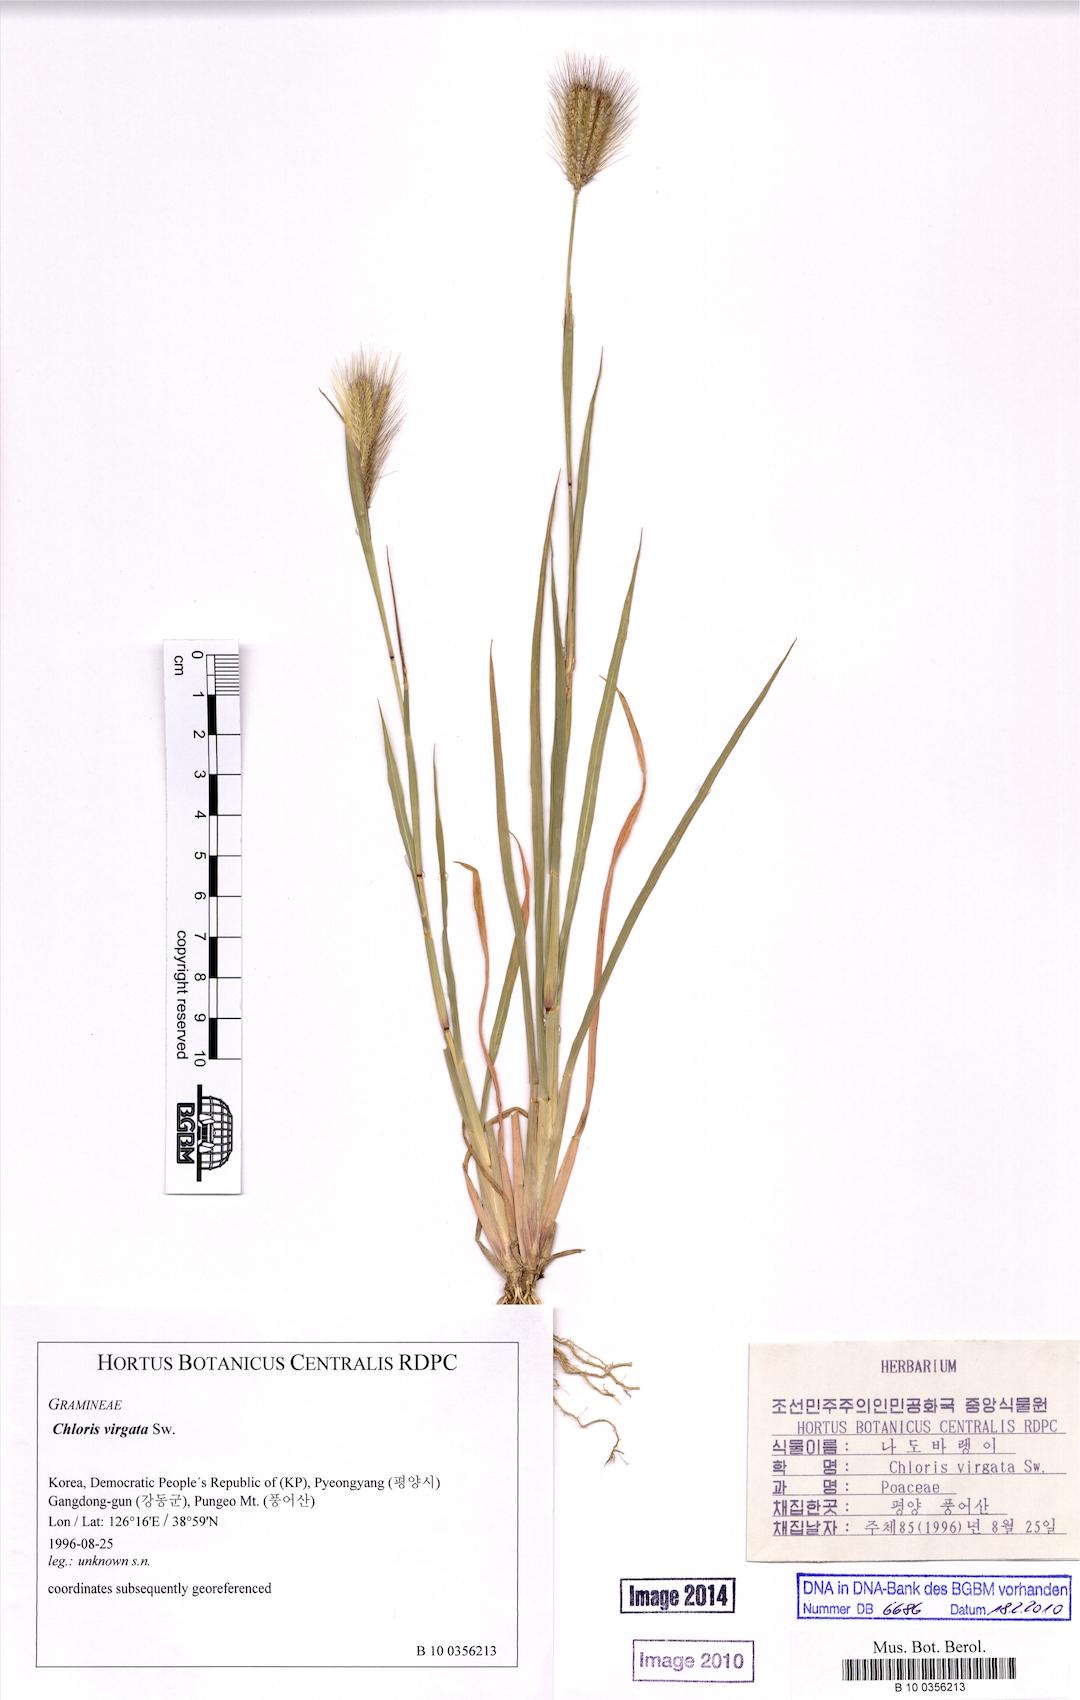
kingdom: Plantae
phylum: Tracheophyta
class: Liliopsida
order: Poales
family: Poaceae
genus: Chloris
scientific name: Chloris virgata
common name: Feathery rhodes-grass
